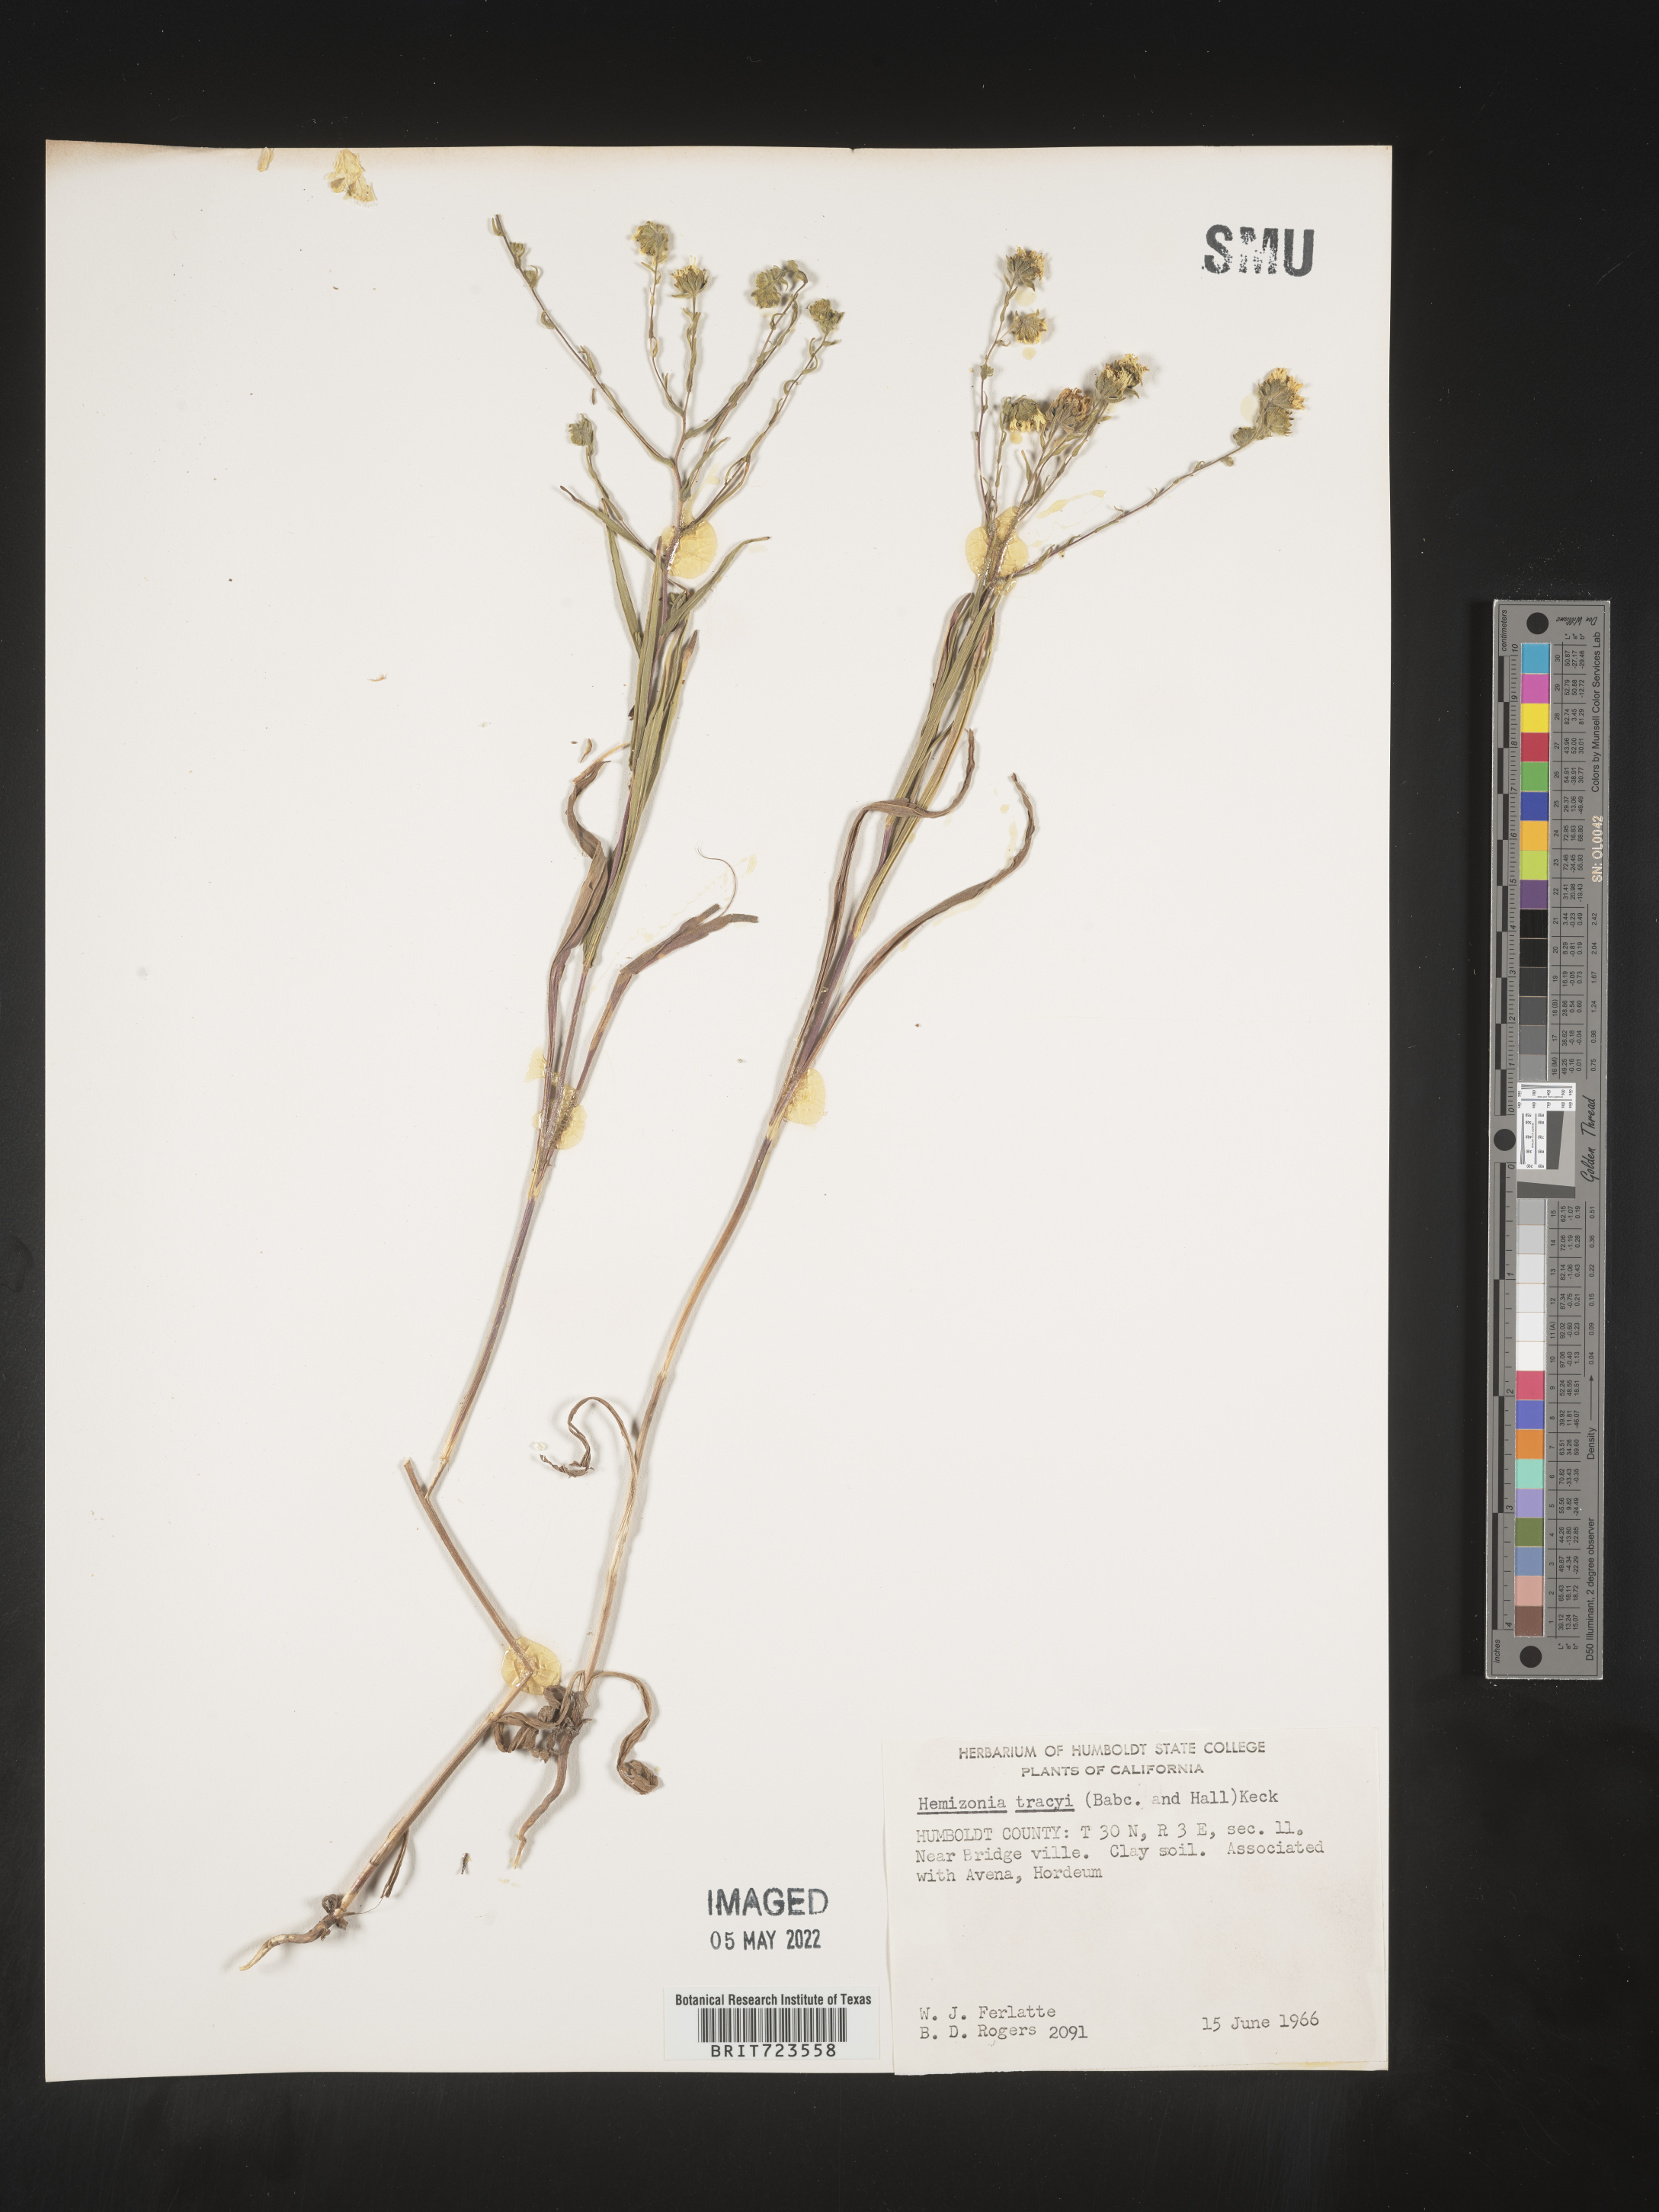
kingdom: Plantae
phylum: Tracheophyta
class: Magnoliopsida
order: Asterales
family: Asteraceae
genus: Hemizonia
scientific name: Hemizonia
